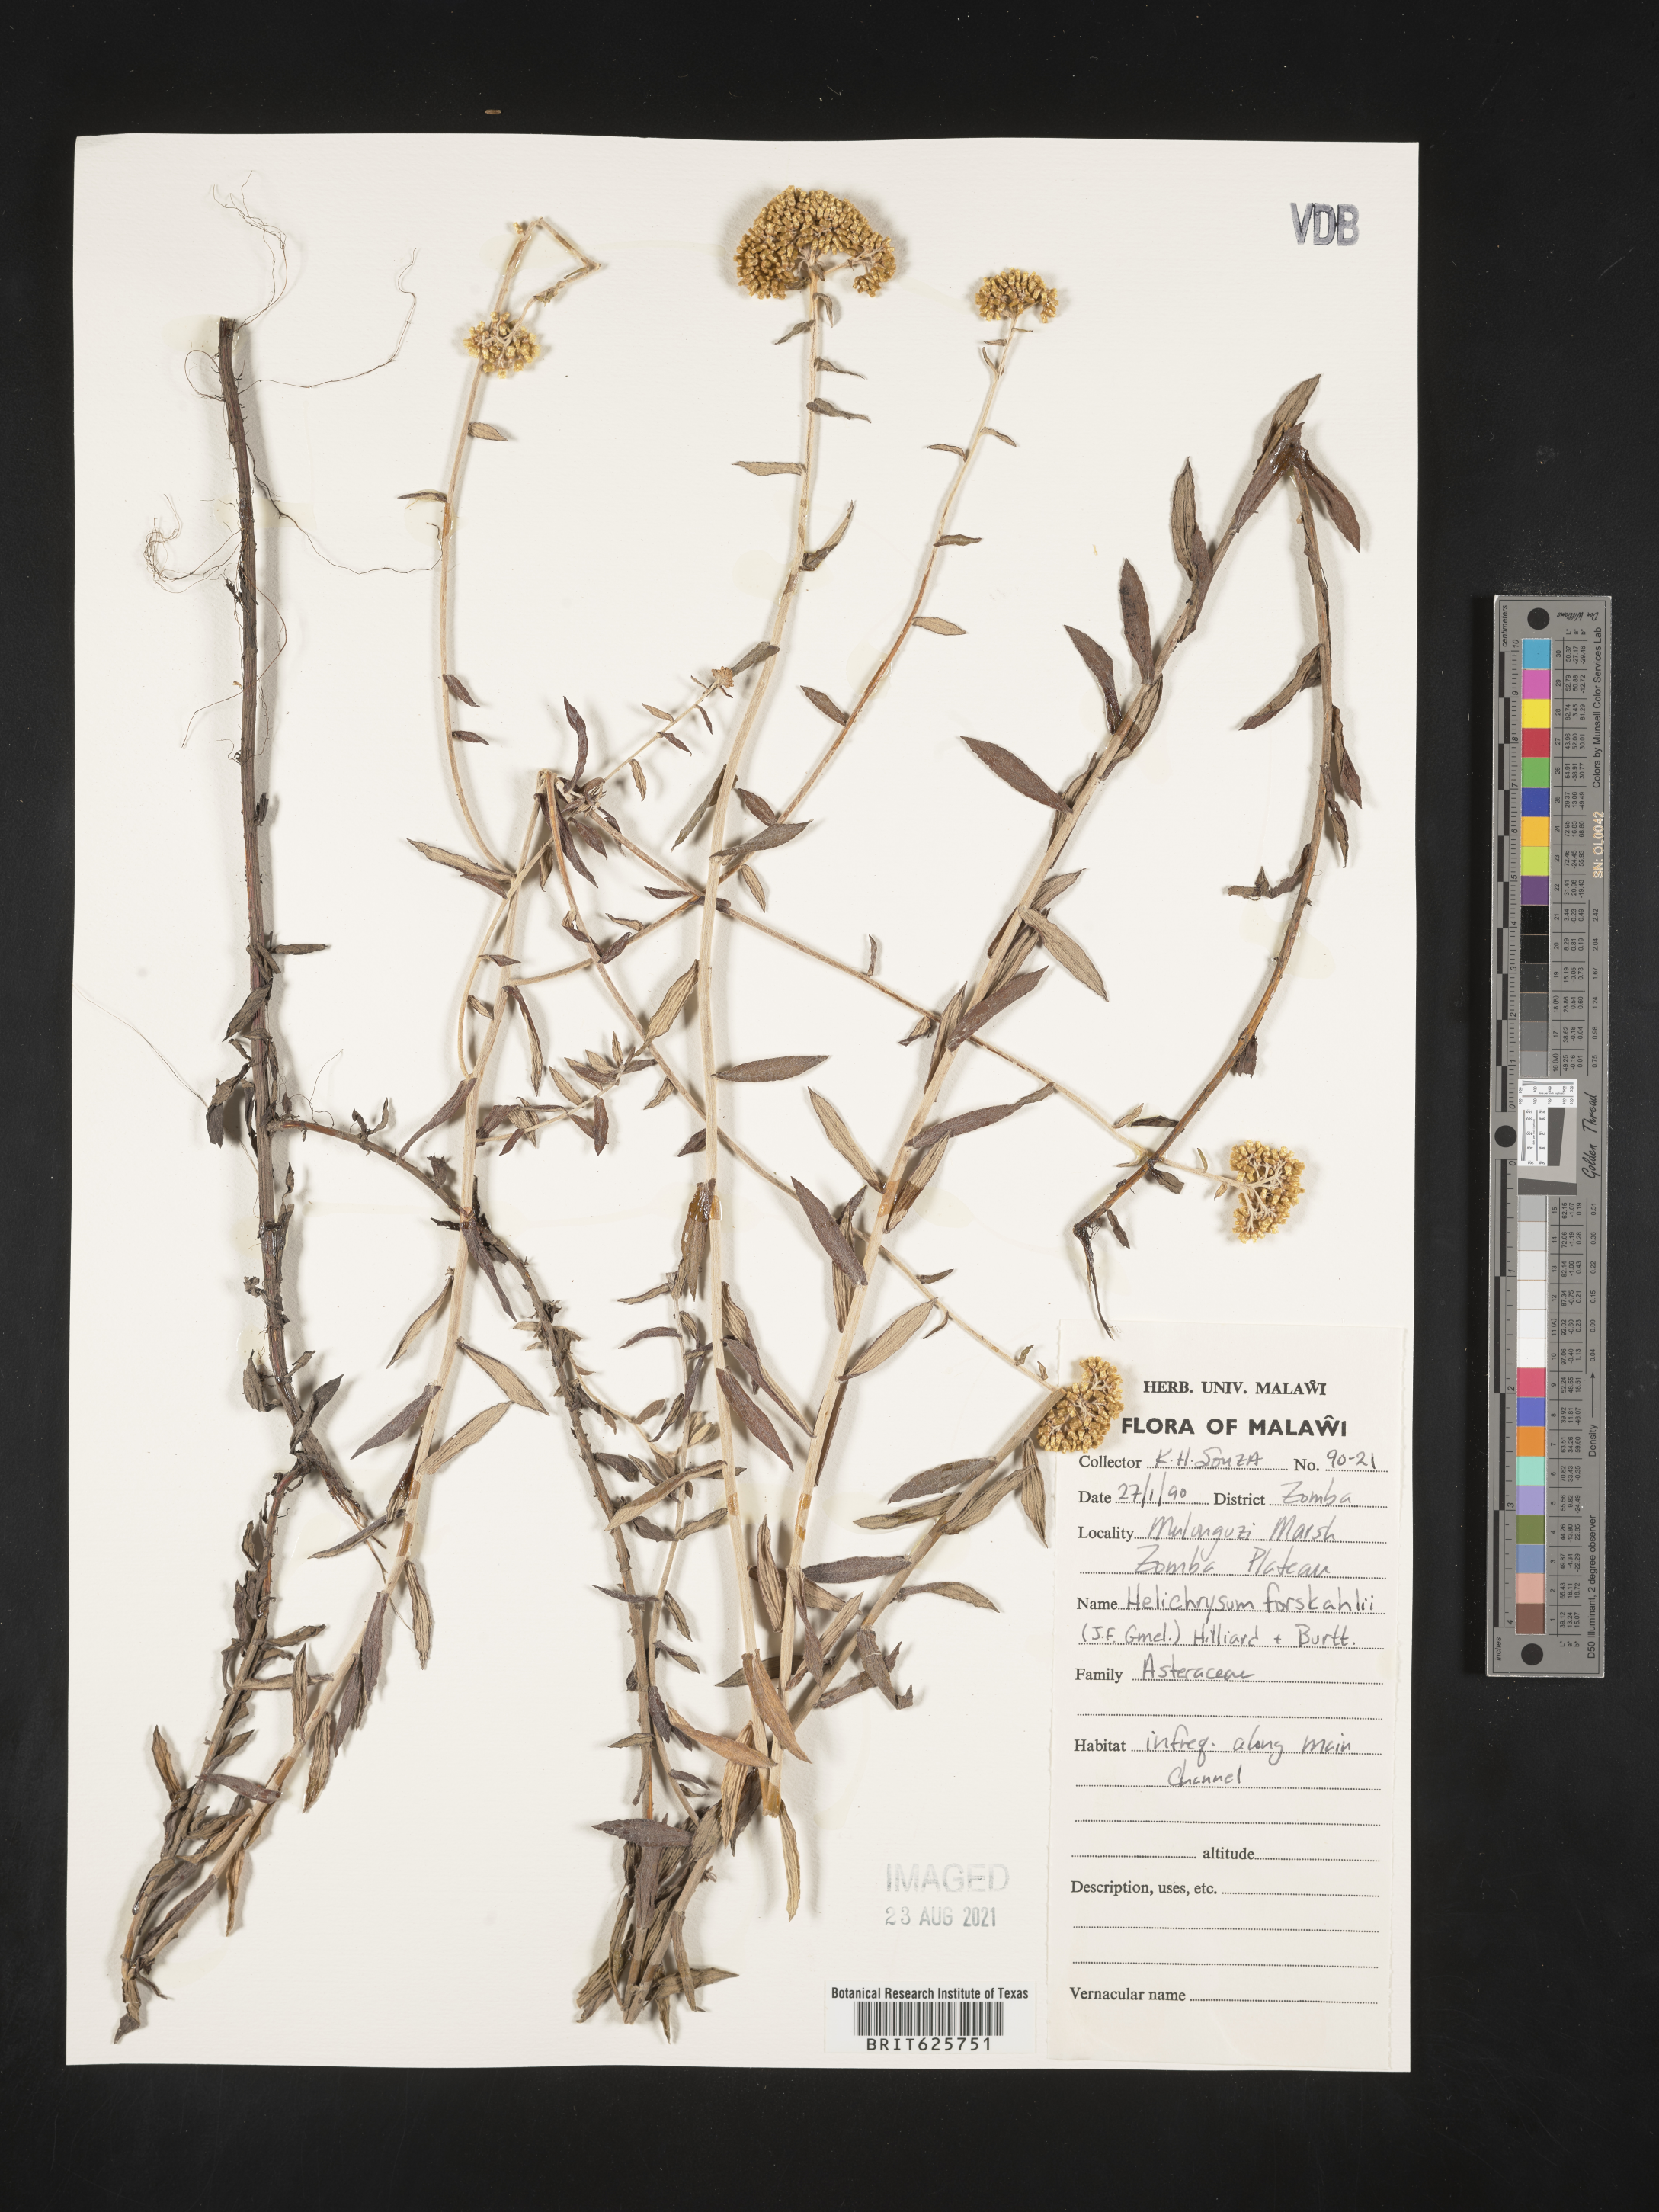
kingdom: Plantae
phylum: Tracheophyta
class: Magnoliopsida
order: Asterales
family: Asteraceae
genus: Helichrysum
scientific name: Helichrysum forskahlii
